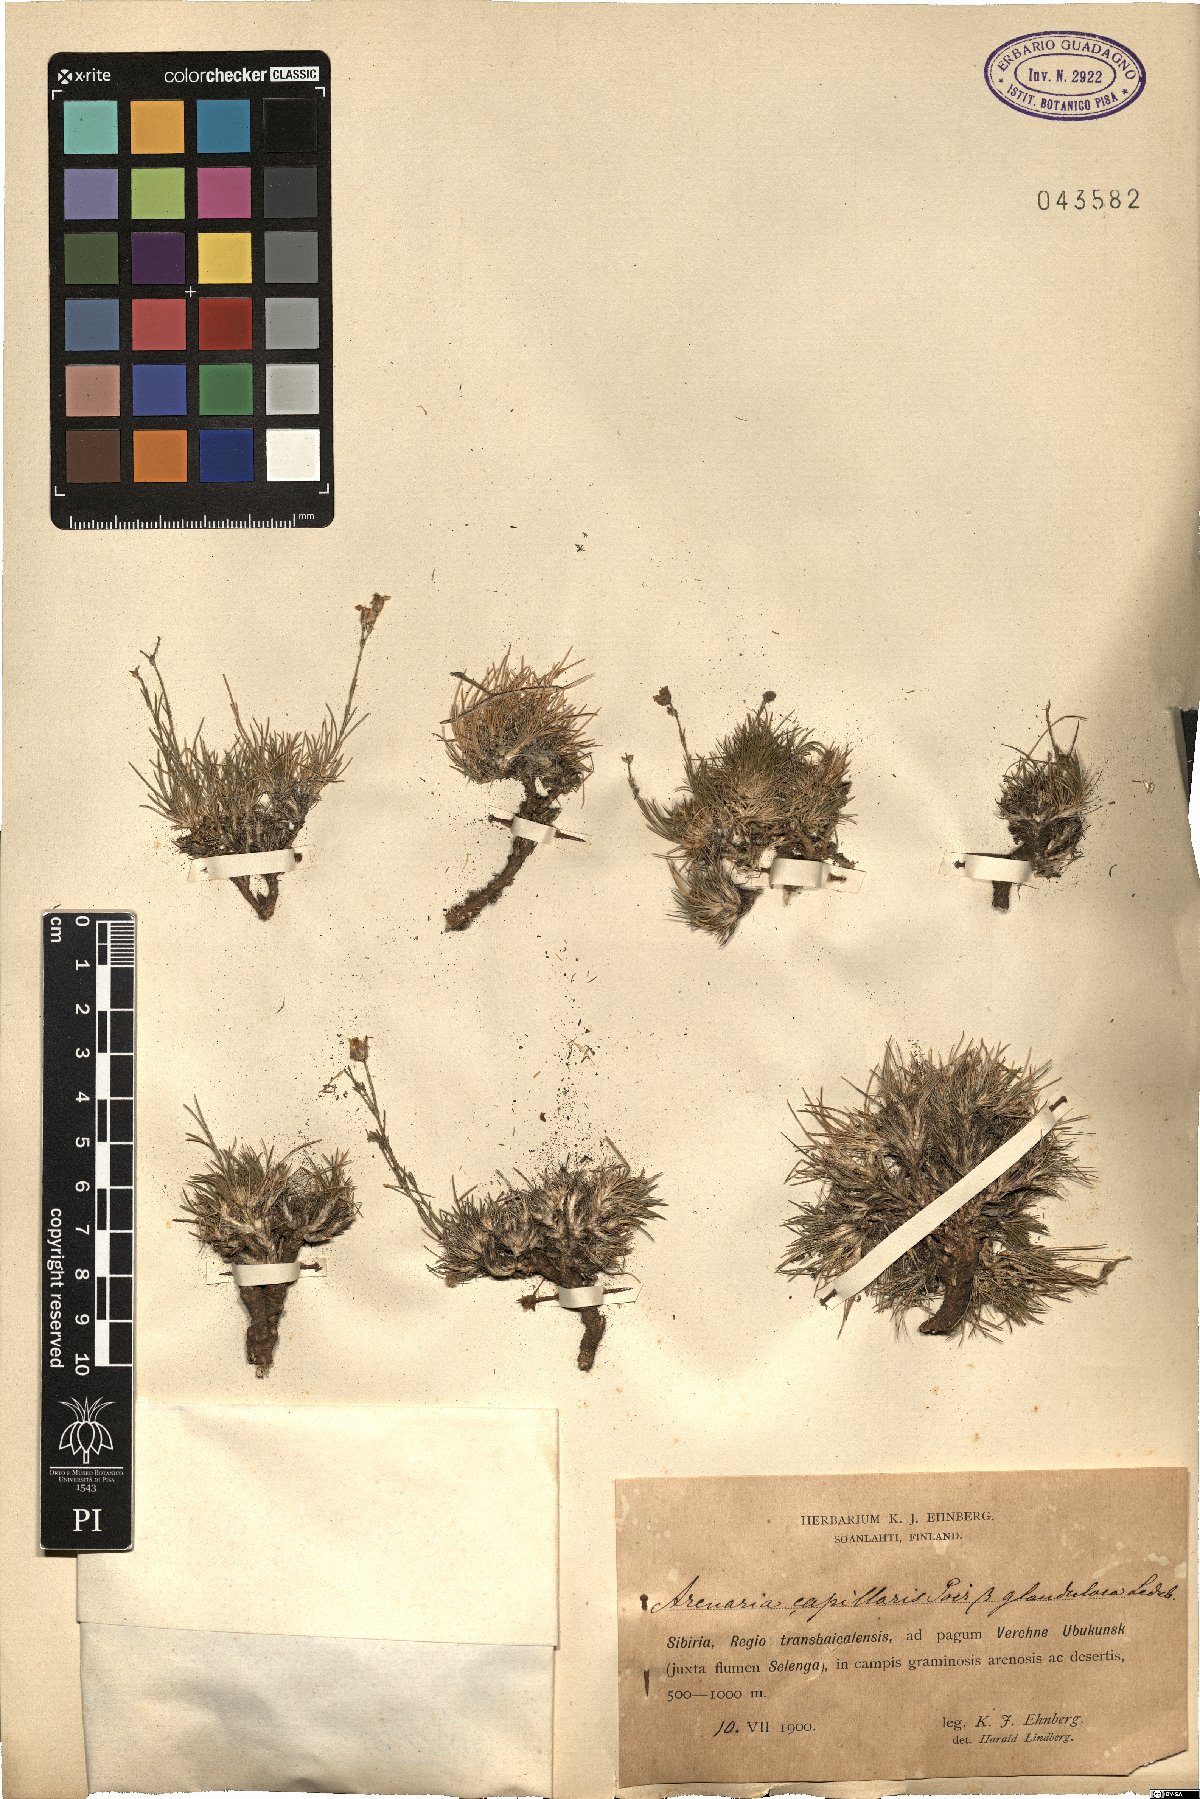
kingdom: Plantae
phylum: Tracheophyta
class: Magnoliopsida
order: Caryophyllales
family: Caryophyllaceae
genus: Eremogone
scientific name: Eremogone capillaris
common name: Slender mountain sandwort
